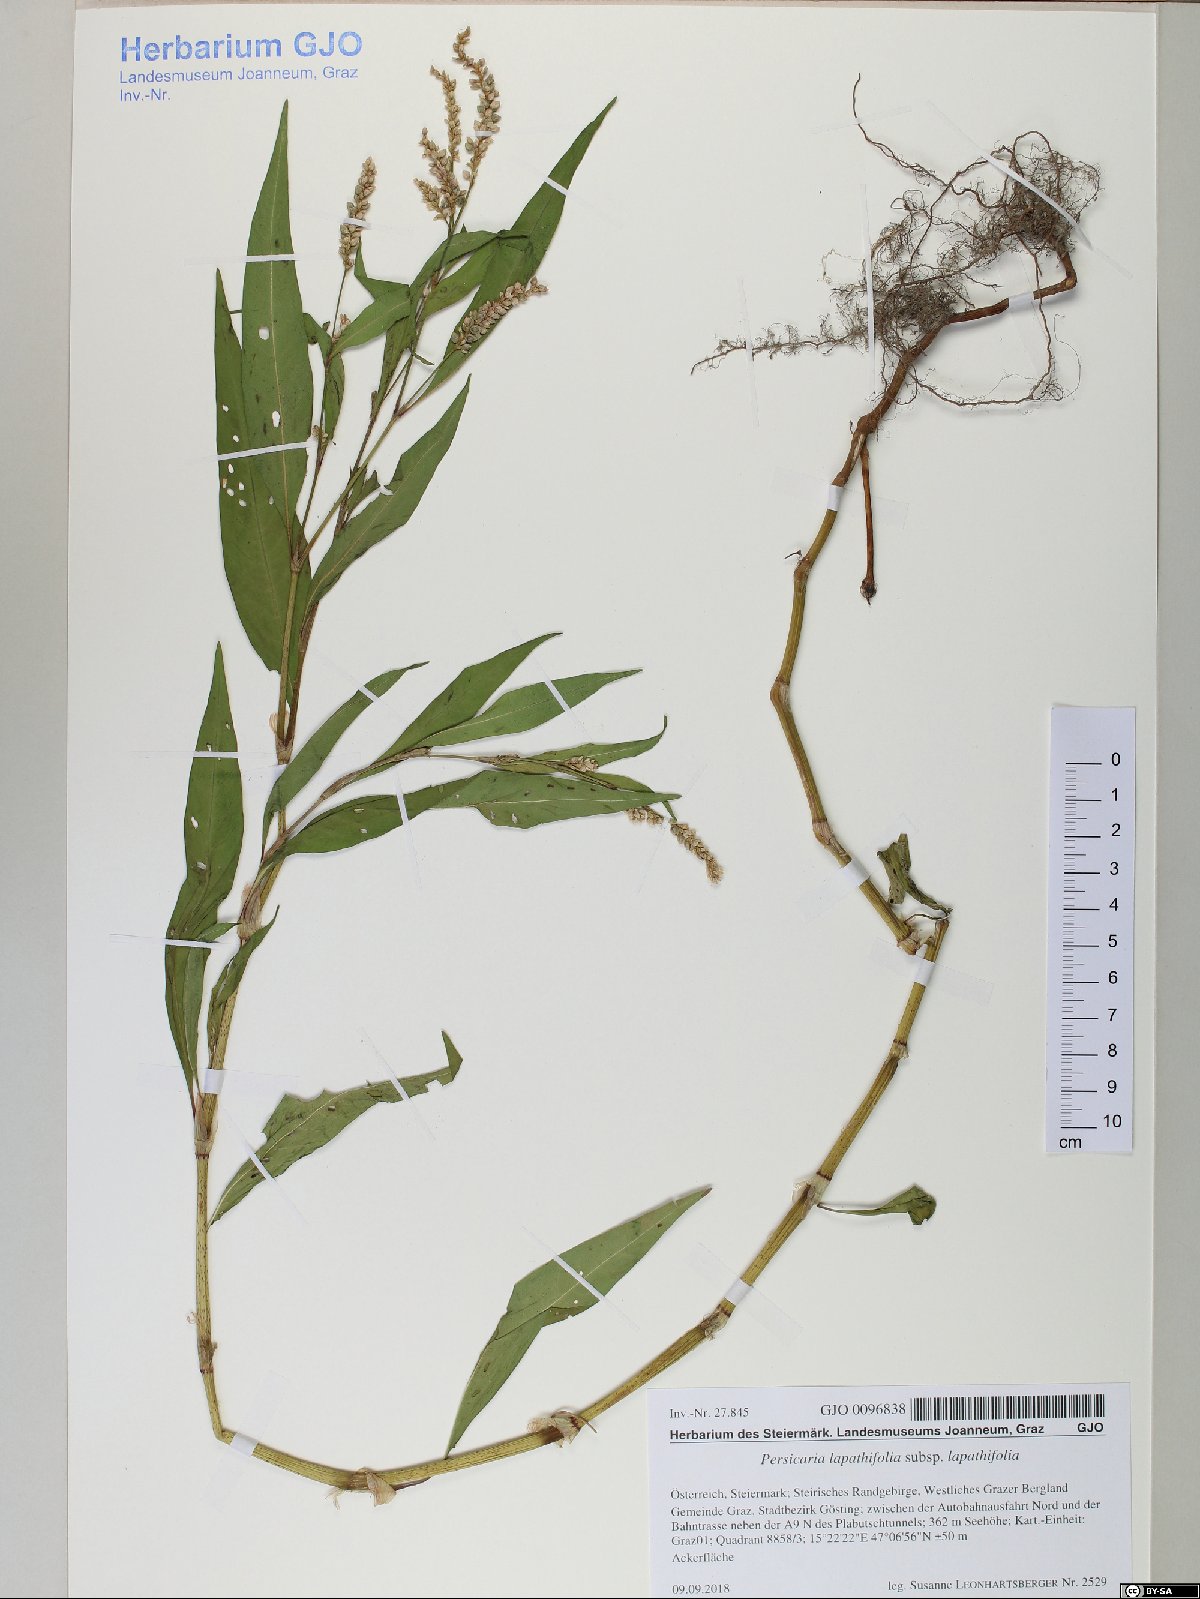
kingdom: Plantae
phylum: Tracheophyta
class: Magnoliopsida
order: Caryophyllales
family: Polygonaceae
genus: Persicaria
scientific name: Persicaria lapathifolia
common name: Curlytop knotweed
